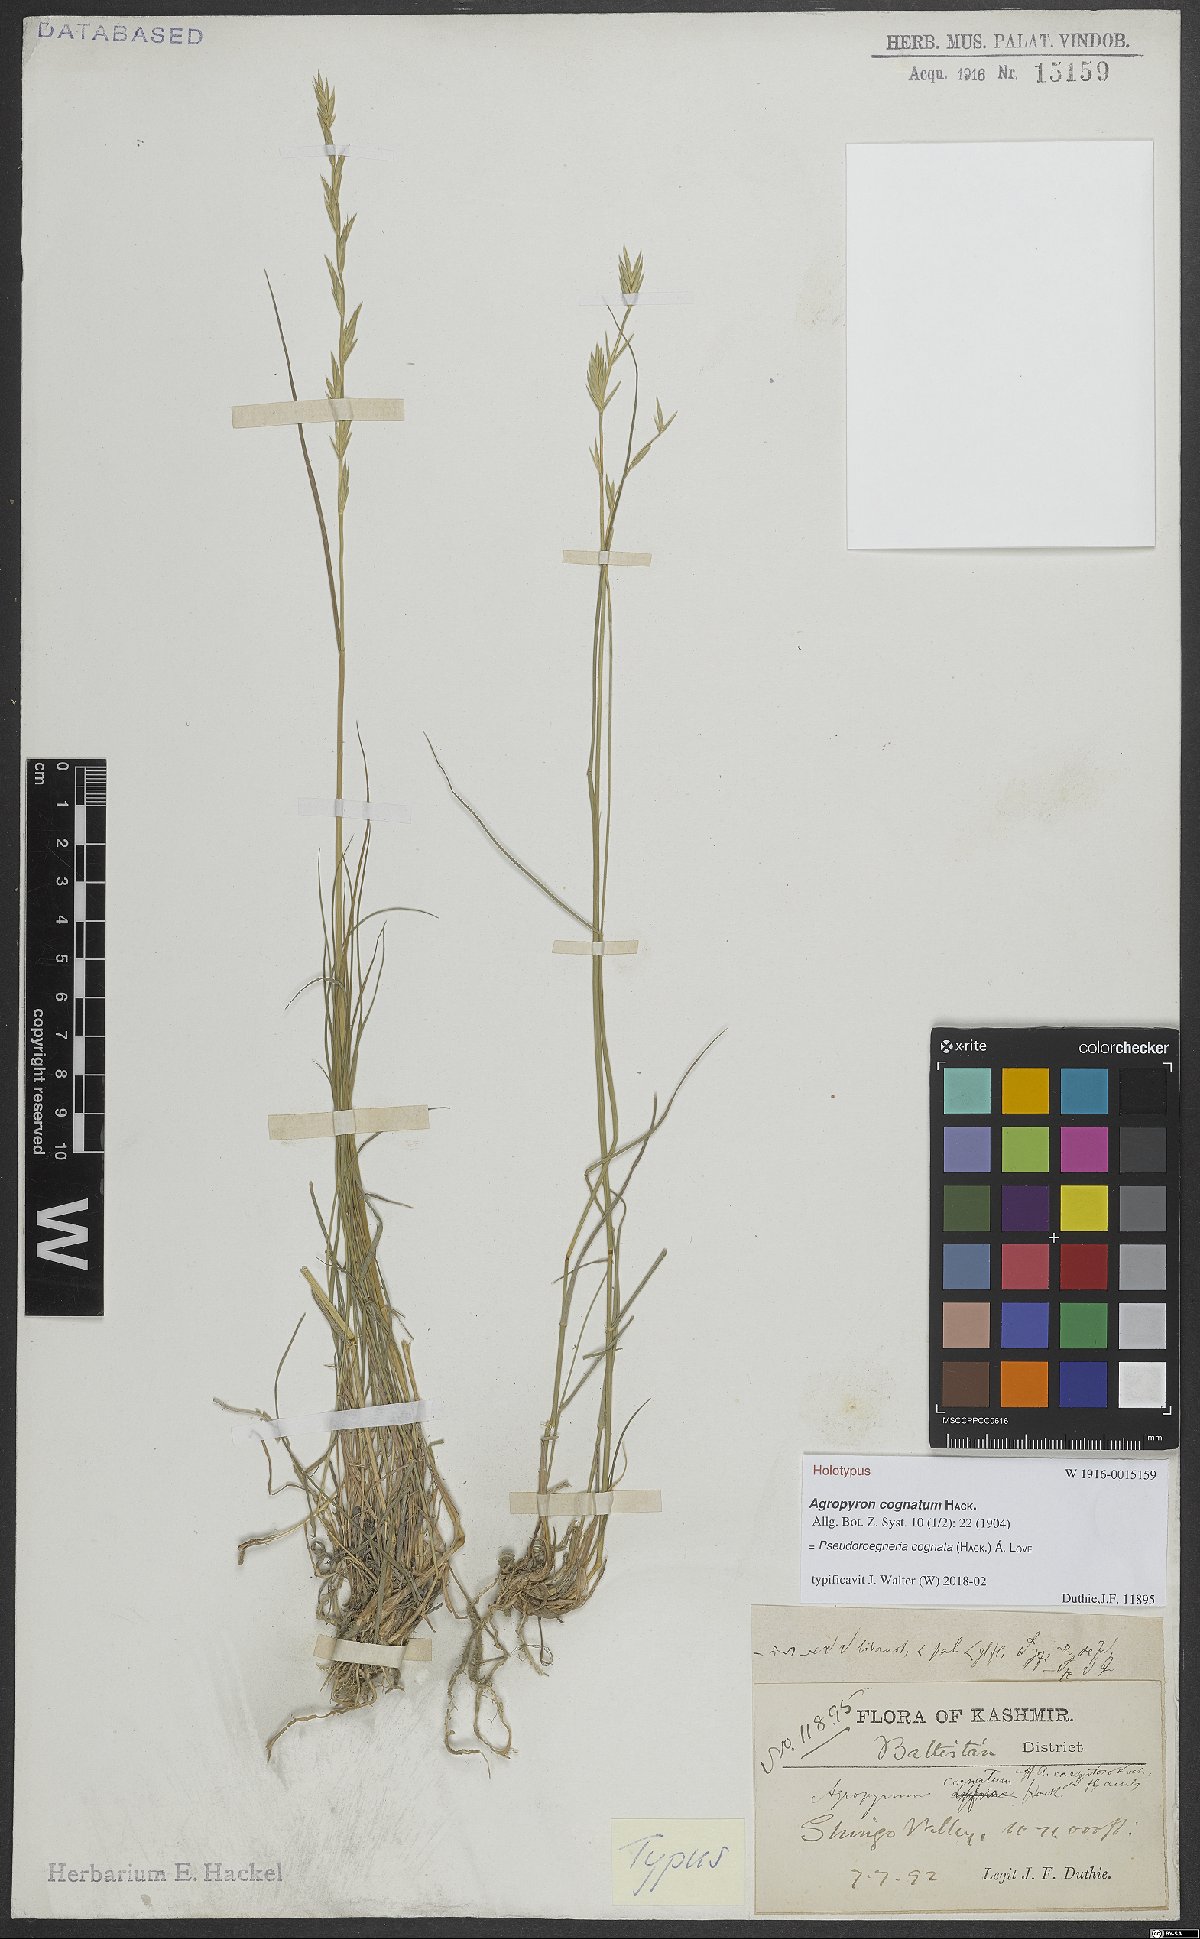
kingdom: Plantae
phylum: Tracheophyta
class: Liliopsida
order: Poales
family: Poaceae
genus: Pseudoroegneria
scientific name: Pseudoroegneria cognata
